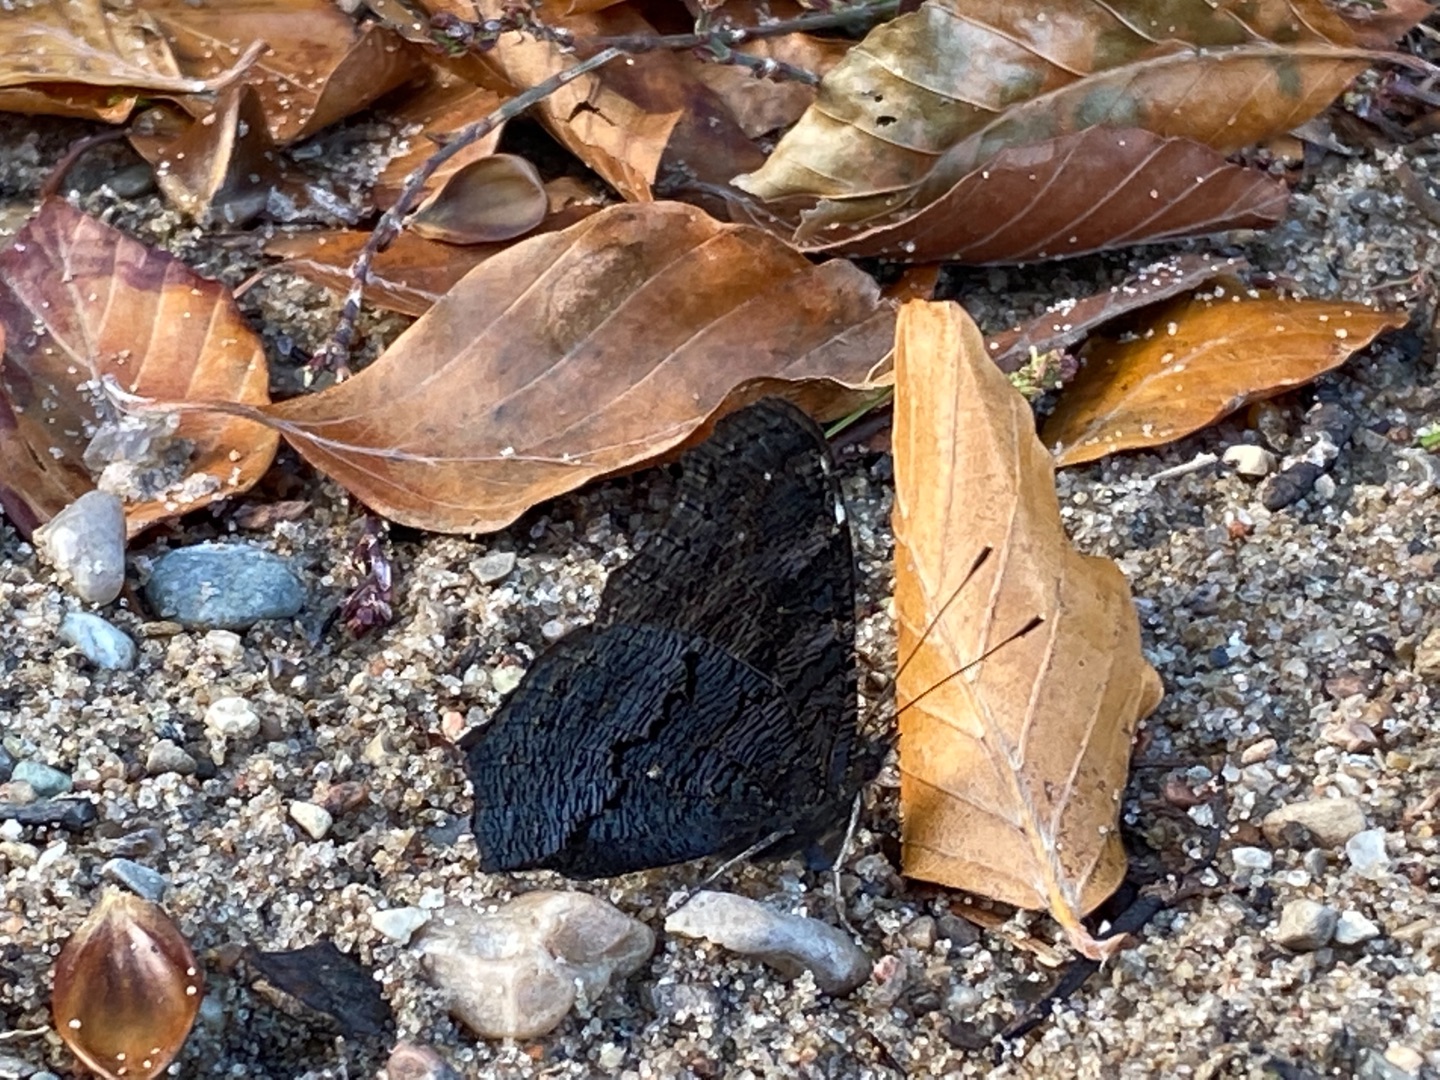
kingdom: Animalia
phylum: Arthropoda
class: Insecta
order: Lepidoptera
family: Nymphalidae
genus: Aglais
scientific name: Aglais io
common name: Dagpåfugleøje
